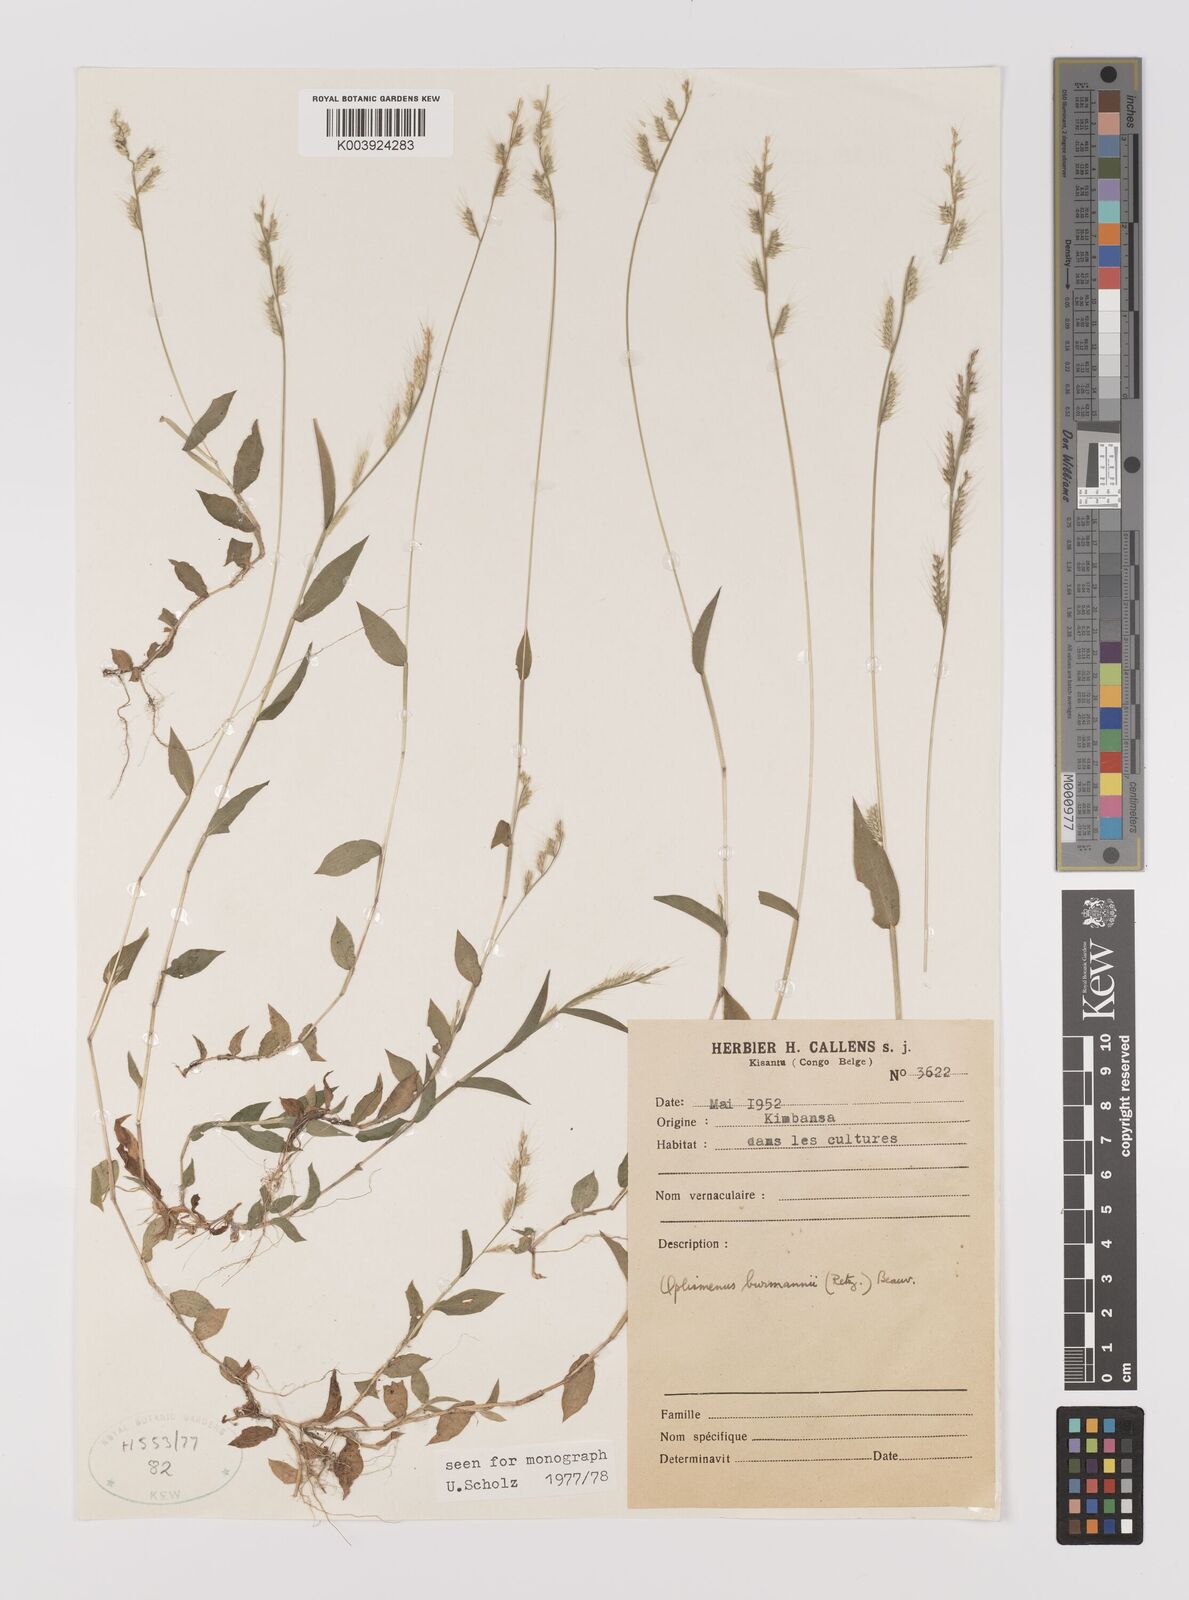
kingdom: Plantae
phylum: Tracheophyta
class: Liliopsida
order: Poales
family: Poaceae
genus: Oplismenus
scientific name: Oplismenus burmanni
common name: Burmann's basketgrass
